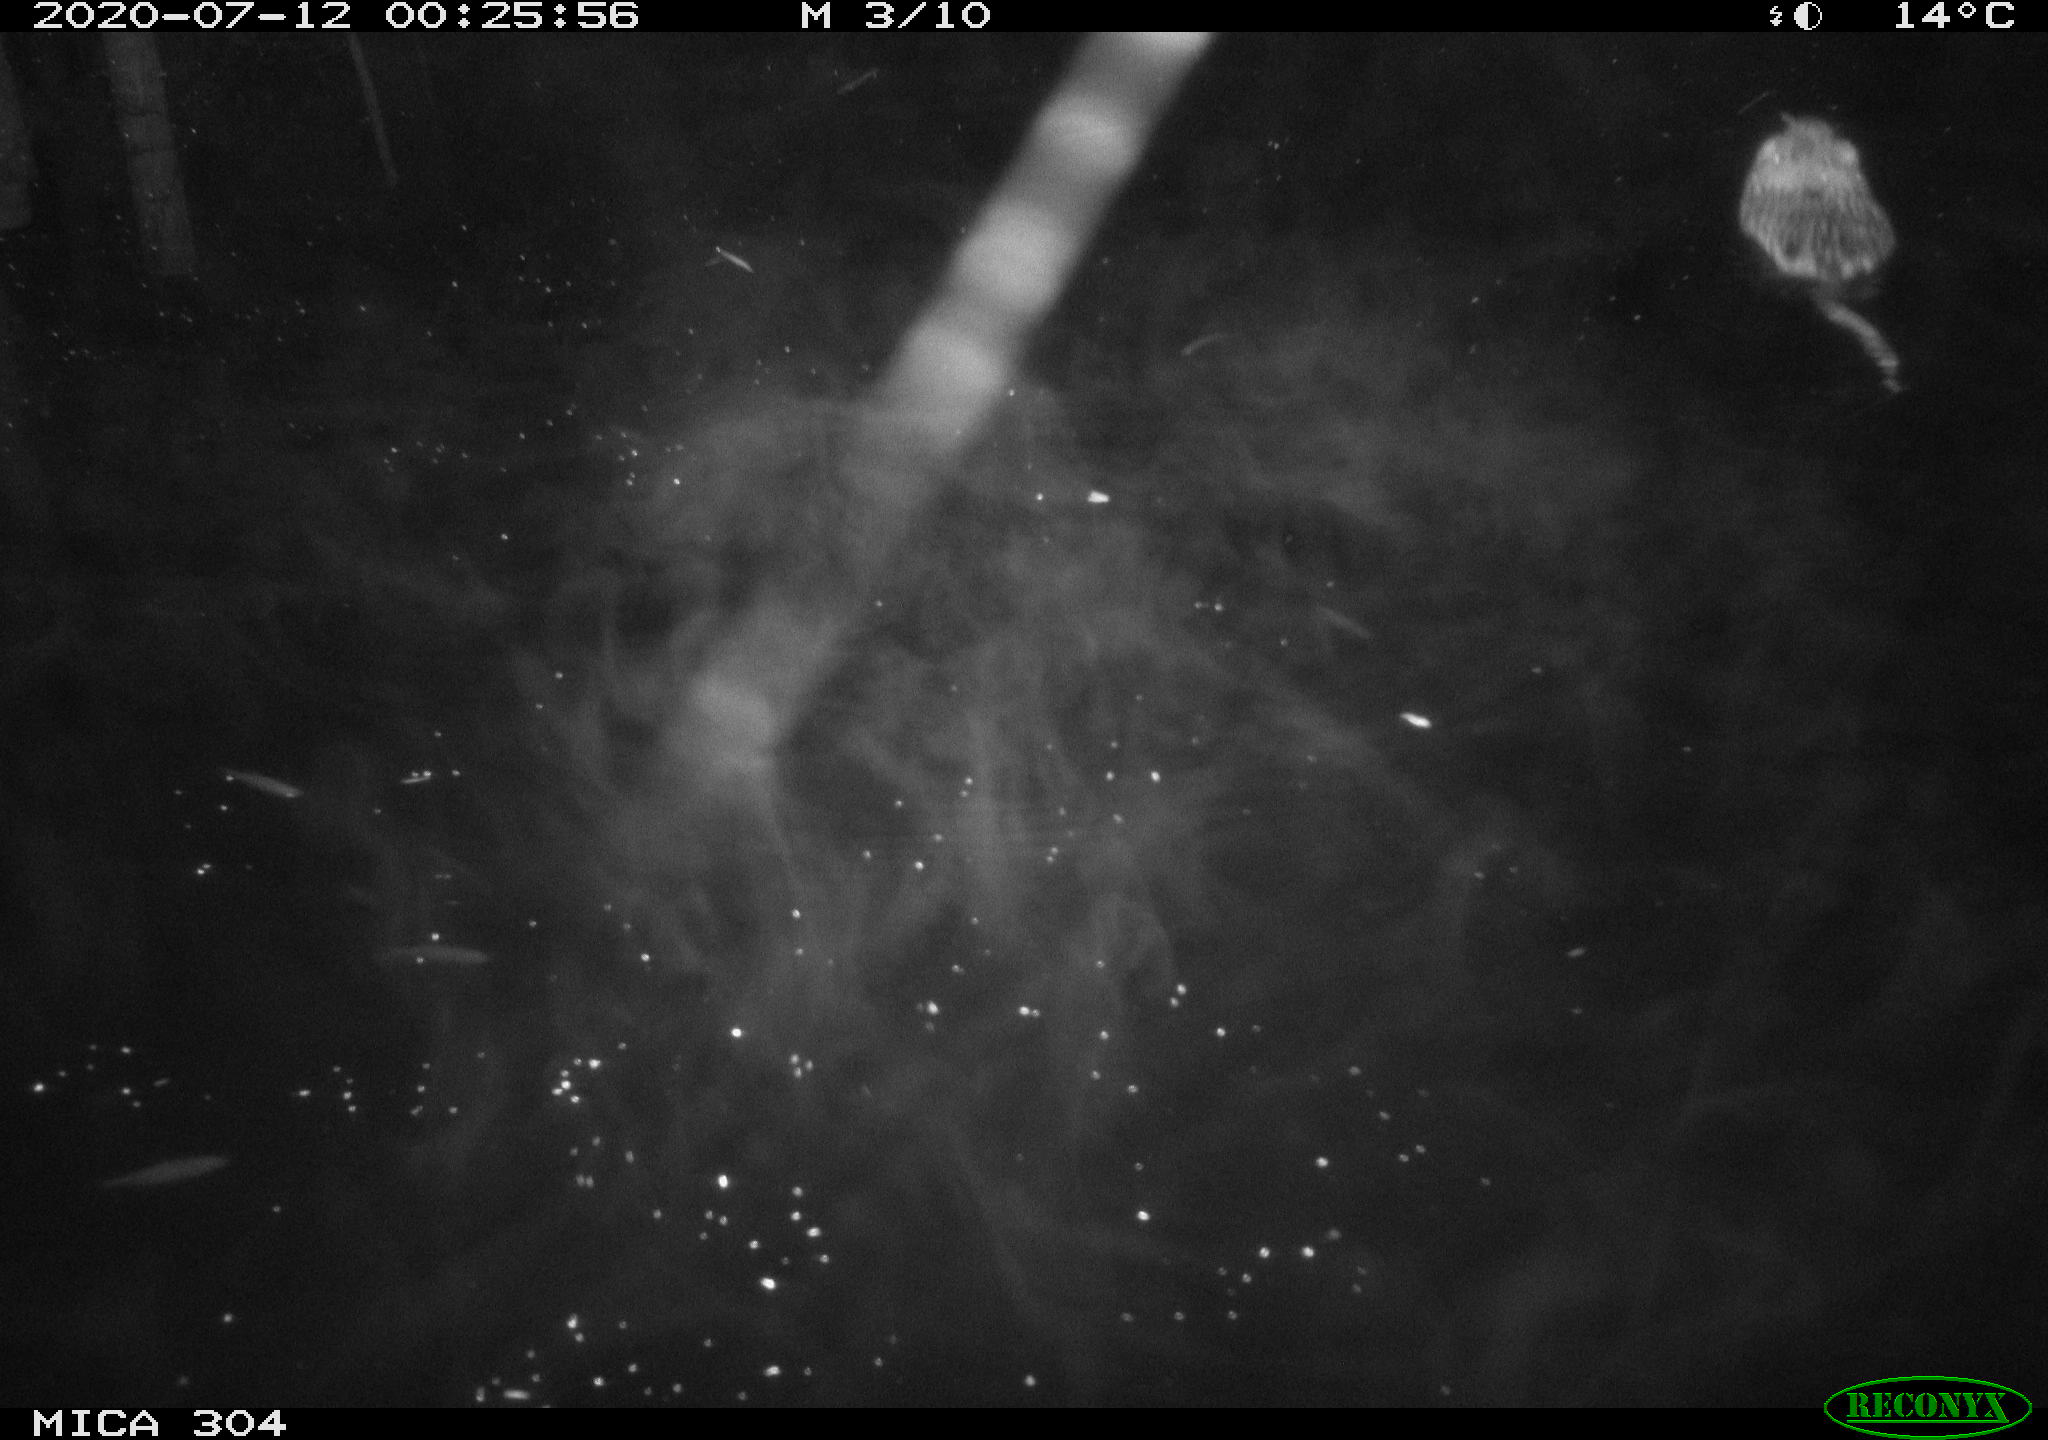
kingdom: Animalia
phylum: Chordata
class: Mammalia
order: Rodentia
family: Cricetidae
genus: Ondatra
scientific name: Ondatra zibethicus
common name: Muskrat
